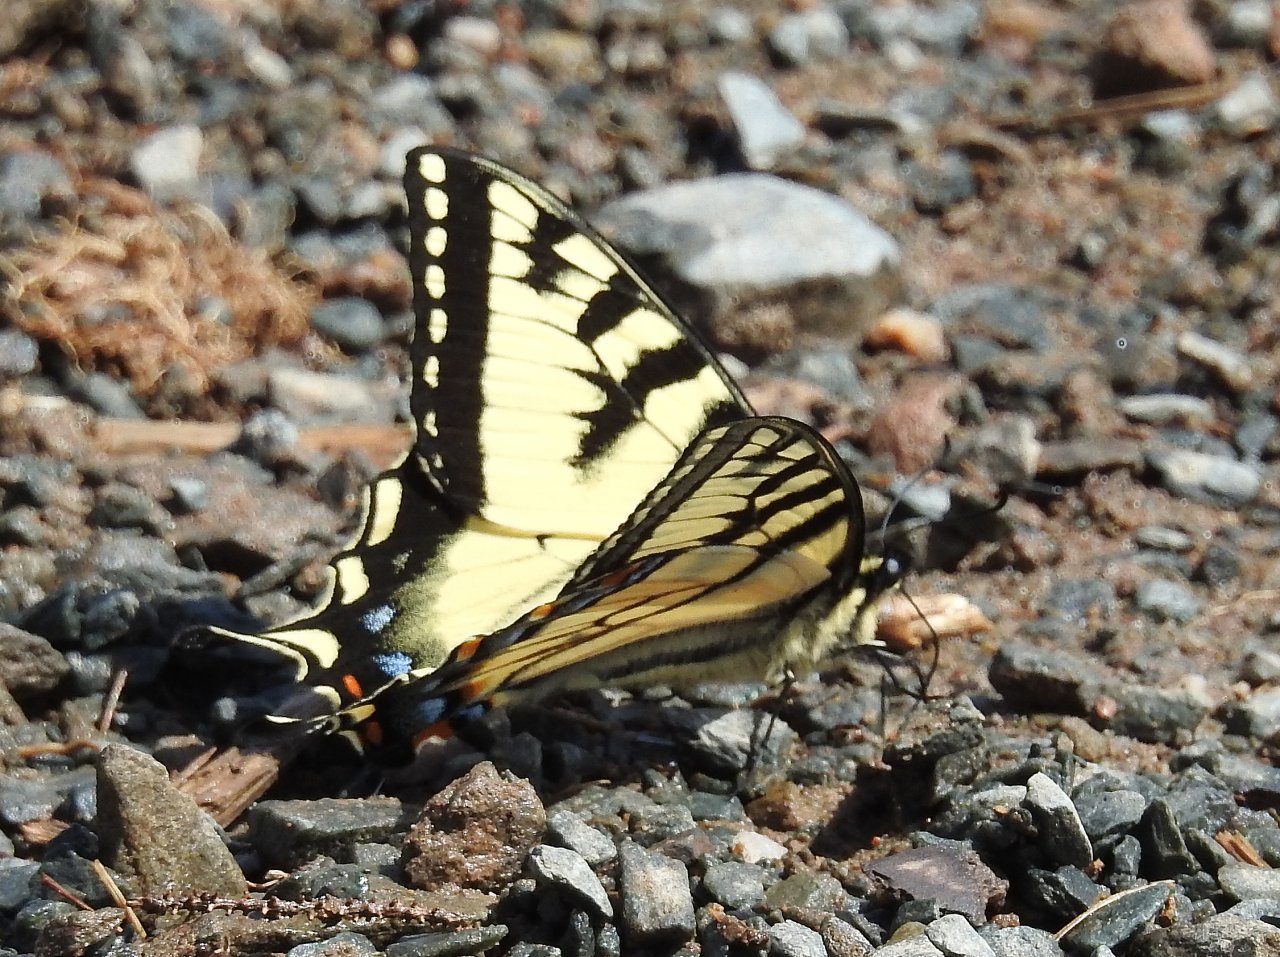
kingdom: Animalia
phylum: Arthropoda
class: Insecta
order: Lepidoptera
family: Papilionidae
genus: Pterourus
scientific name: Pterourus canadensis
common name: Canadian Tiger Swallowtail
